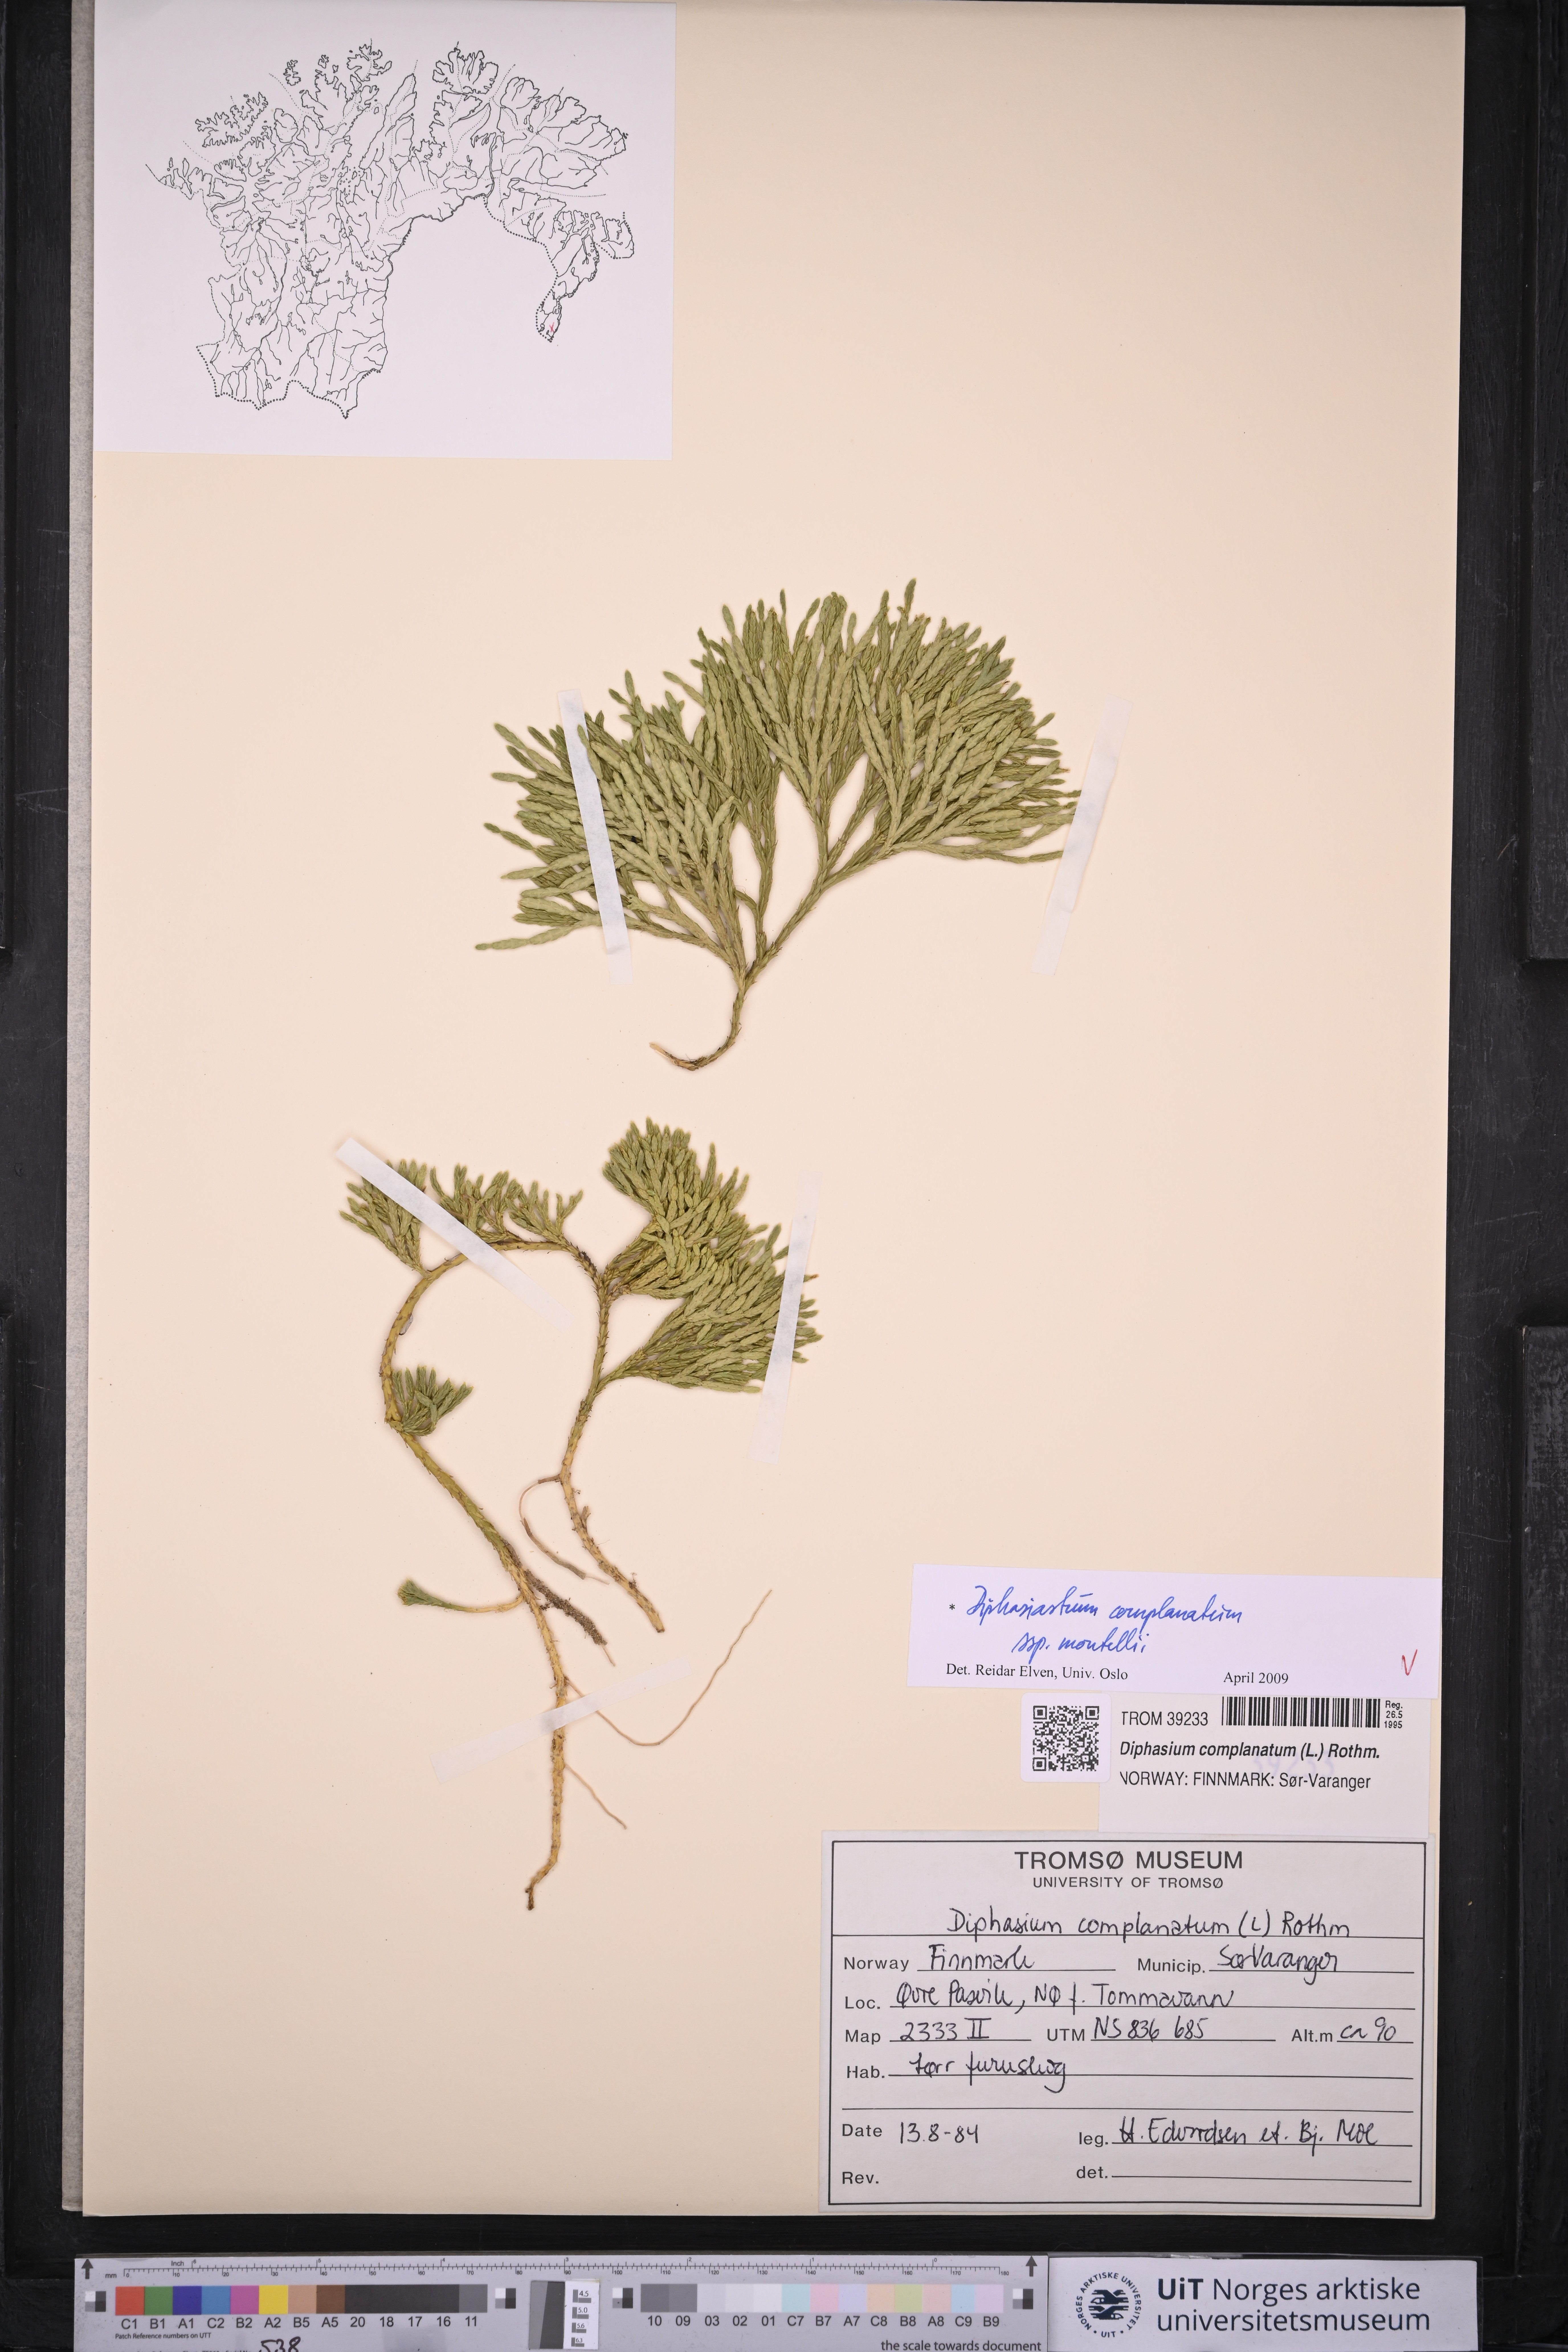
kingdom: Plantae
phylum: Tracheophyta
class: Lycopodiopsida
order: Lycopodiales
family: Lycopodiaceae
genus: Diphasiastrum
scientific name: Diphasiastrum complanatum
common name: Northern running-pine
